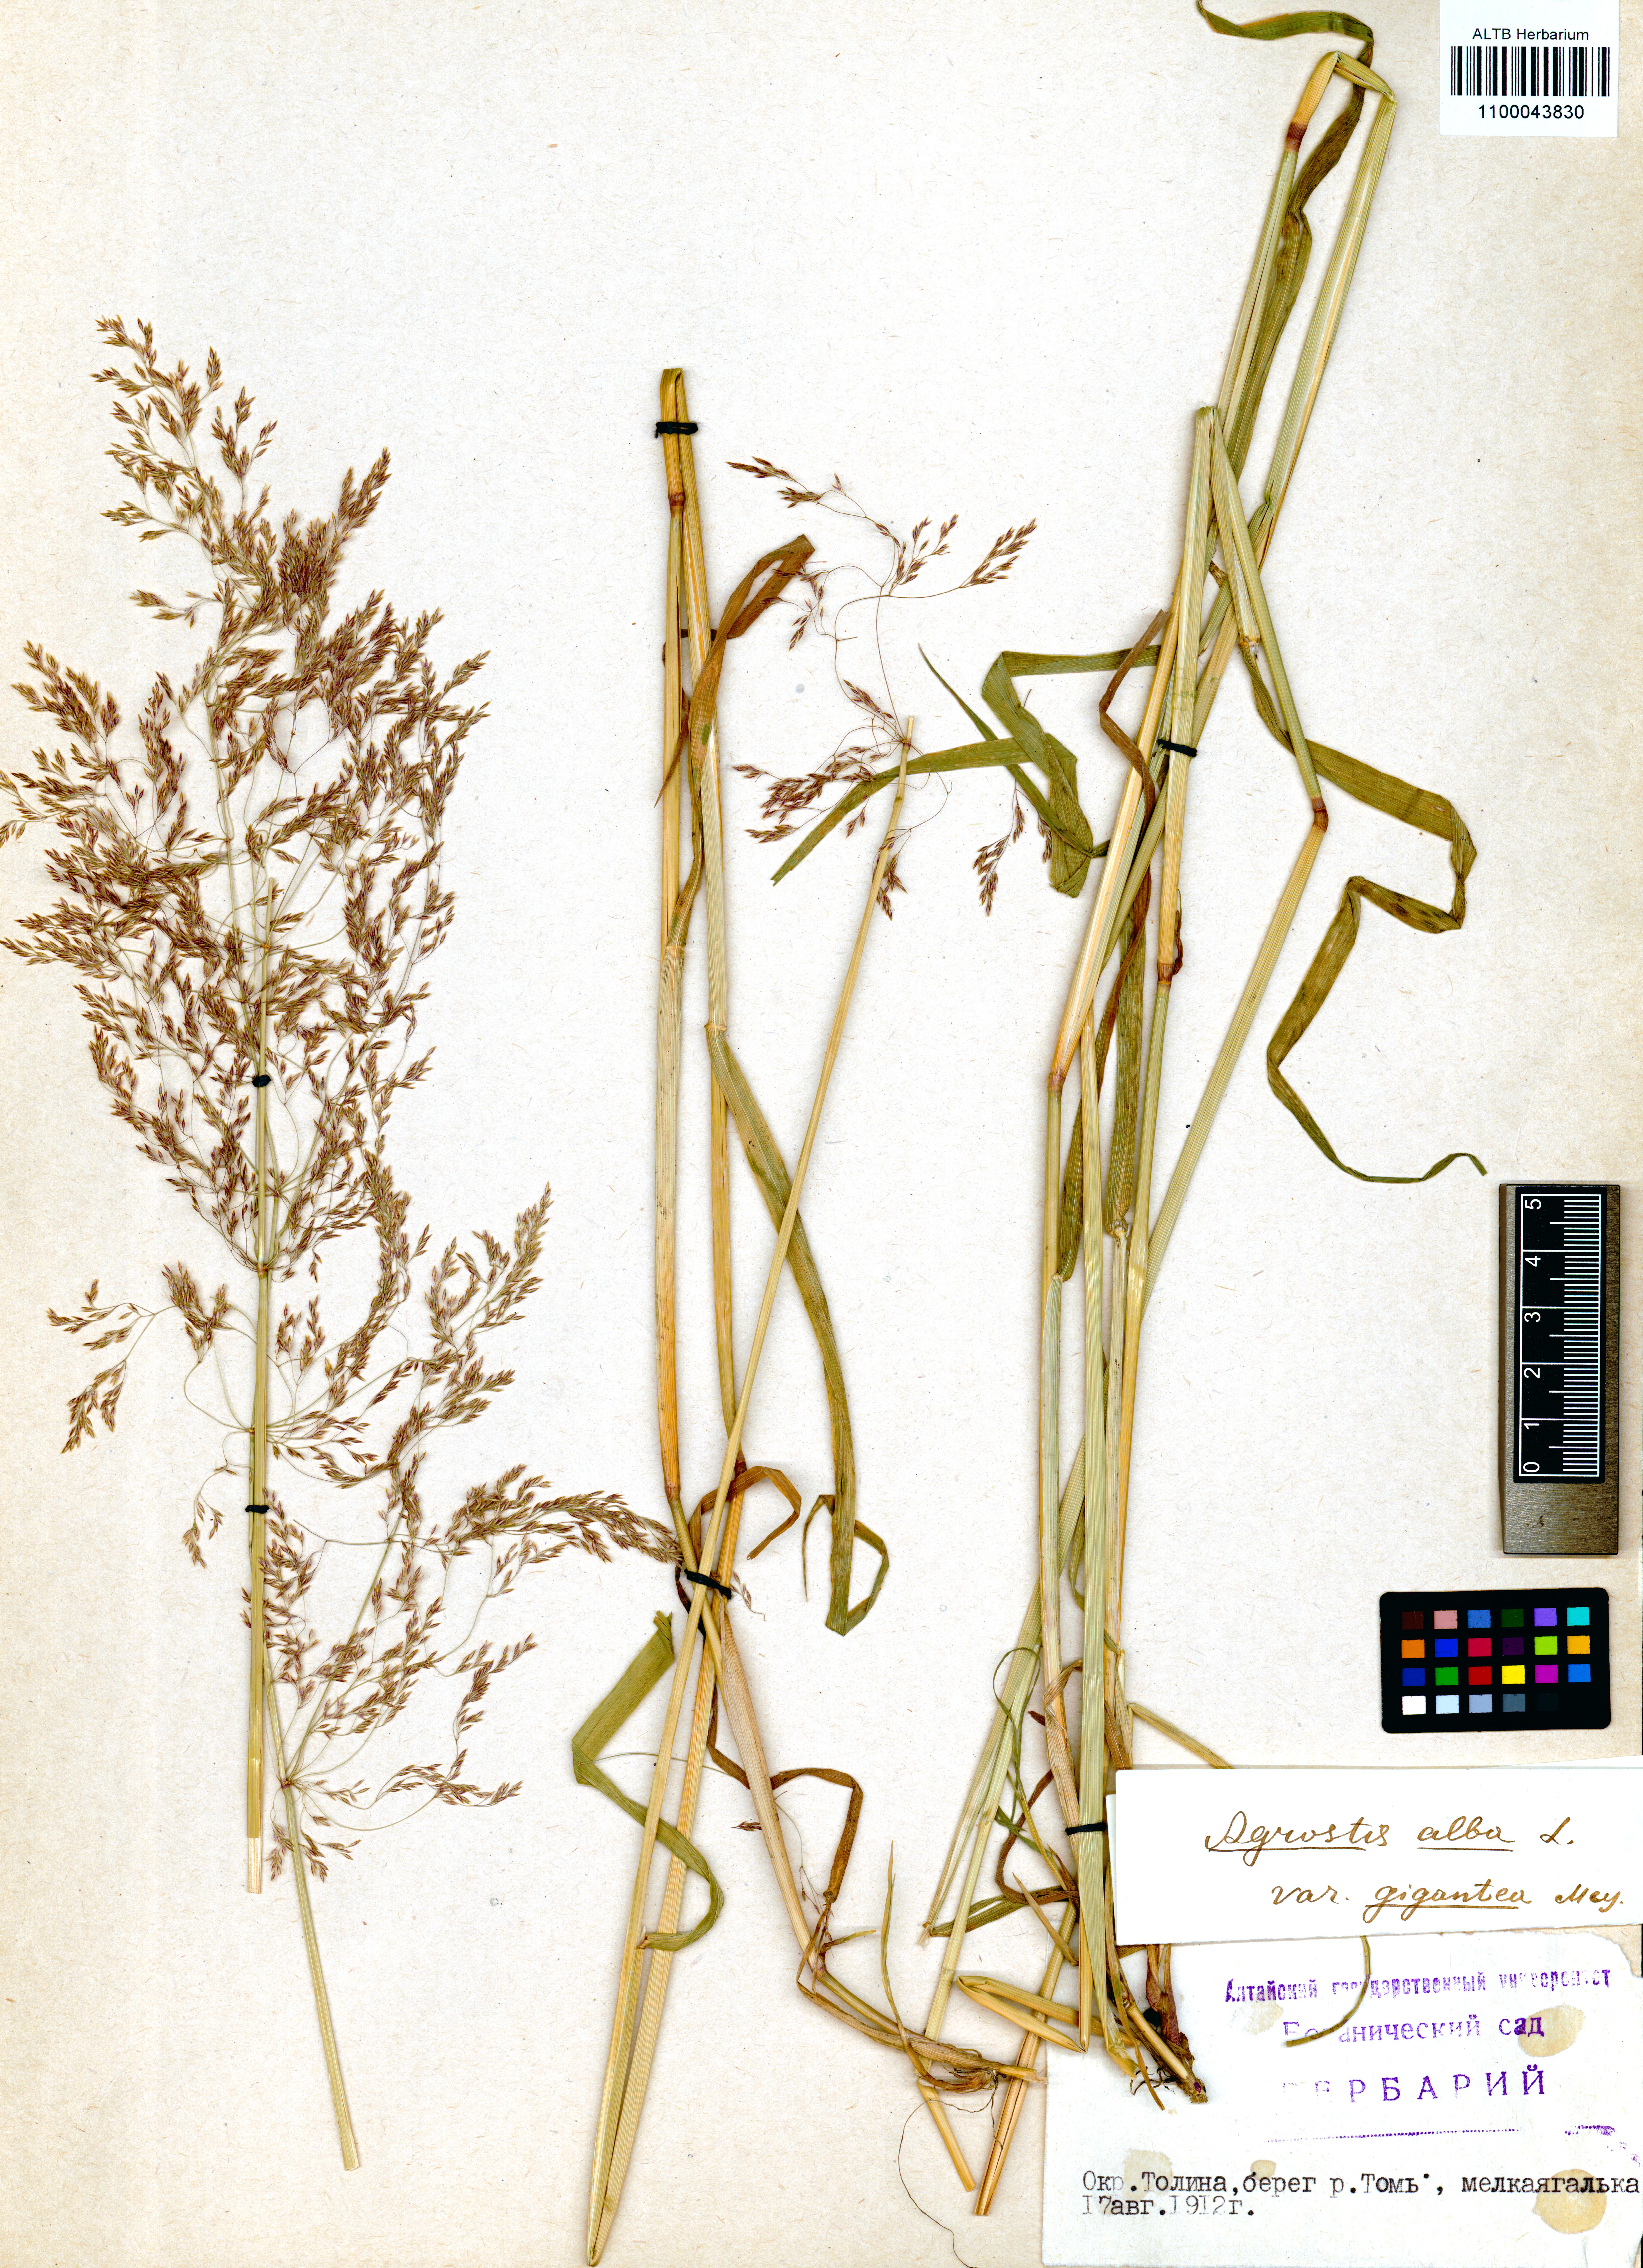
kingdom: Plantae
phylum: Tracheophyta
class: Liliopsida
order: Poales
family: Poaceae
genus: Agrostis
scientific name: Agrostis gigantea
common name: Black bent
